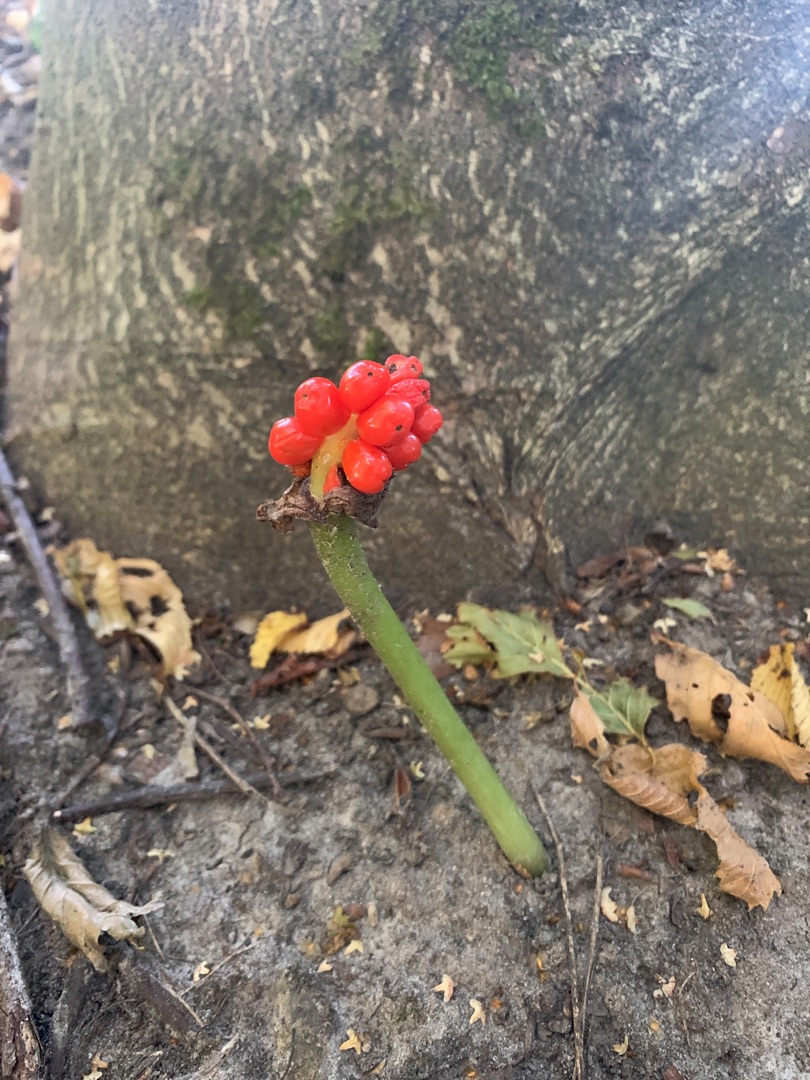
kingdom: Plantae
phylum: Tracheophyta
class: Liliopsida
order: Alismatales
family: Araceae
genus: Arum
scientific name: Arum
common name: Arumslægten
